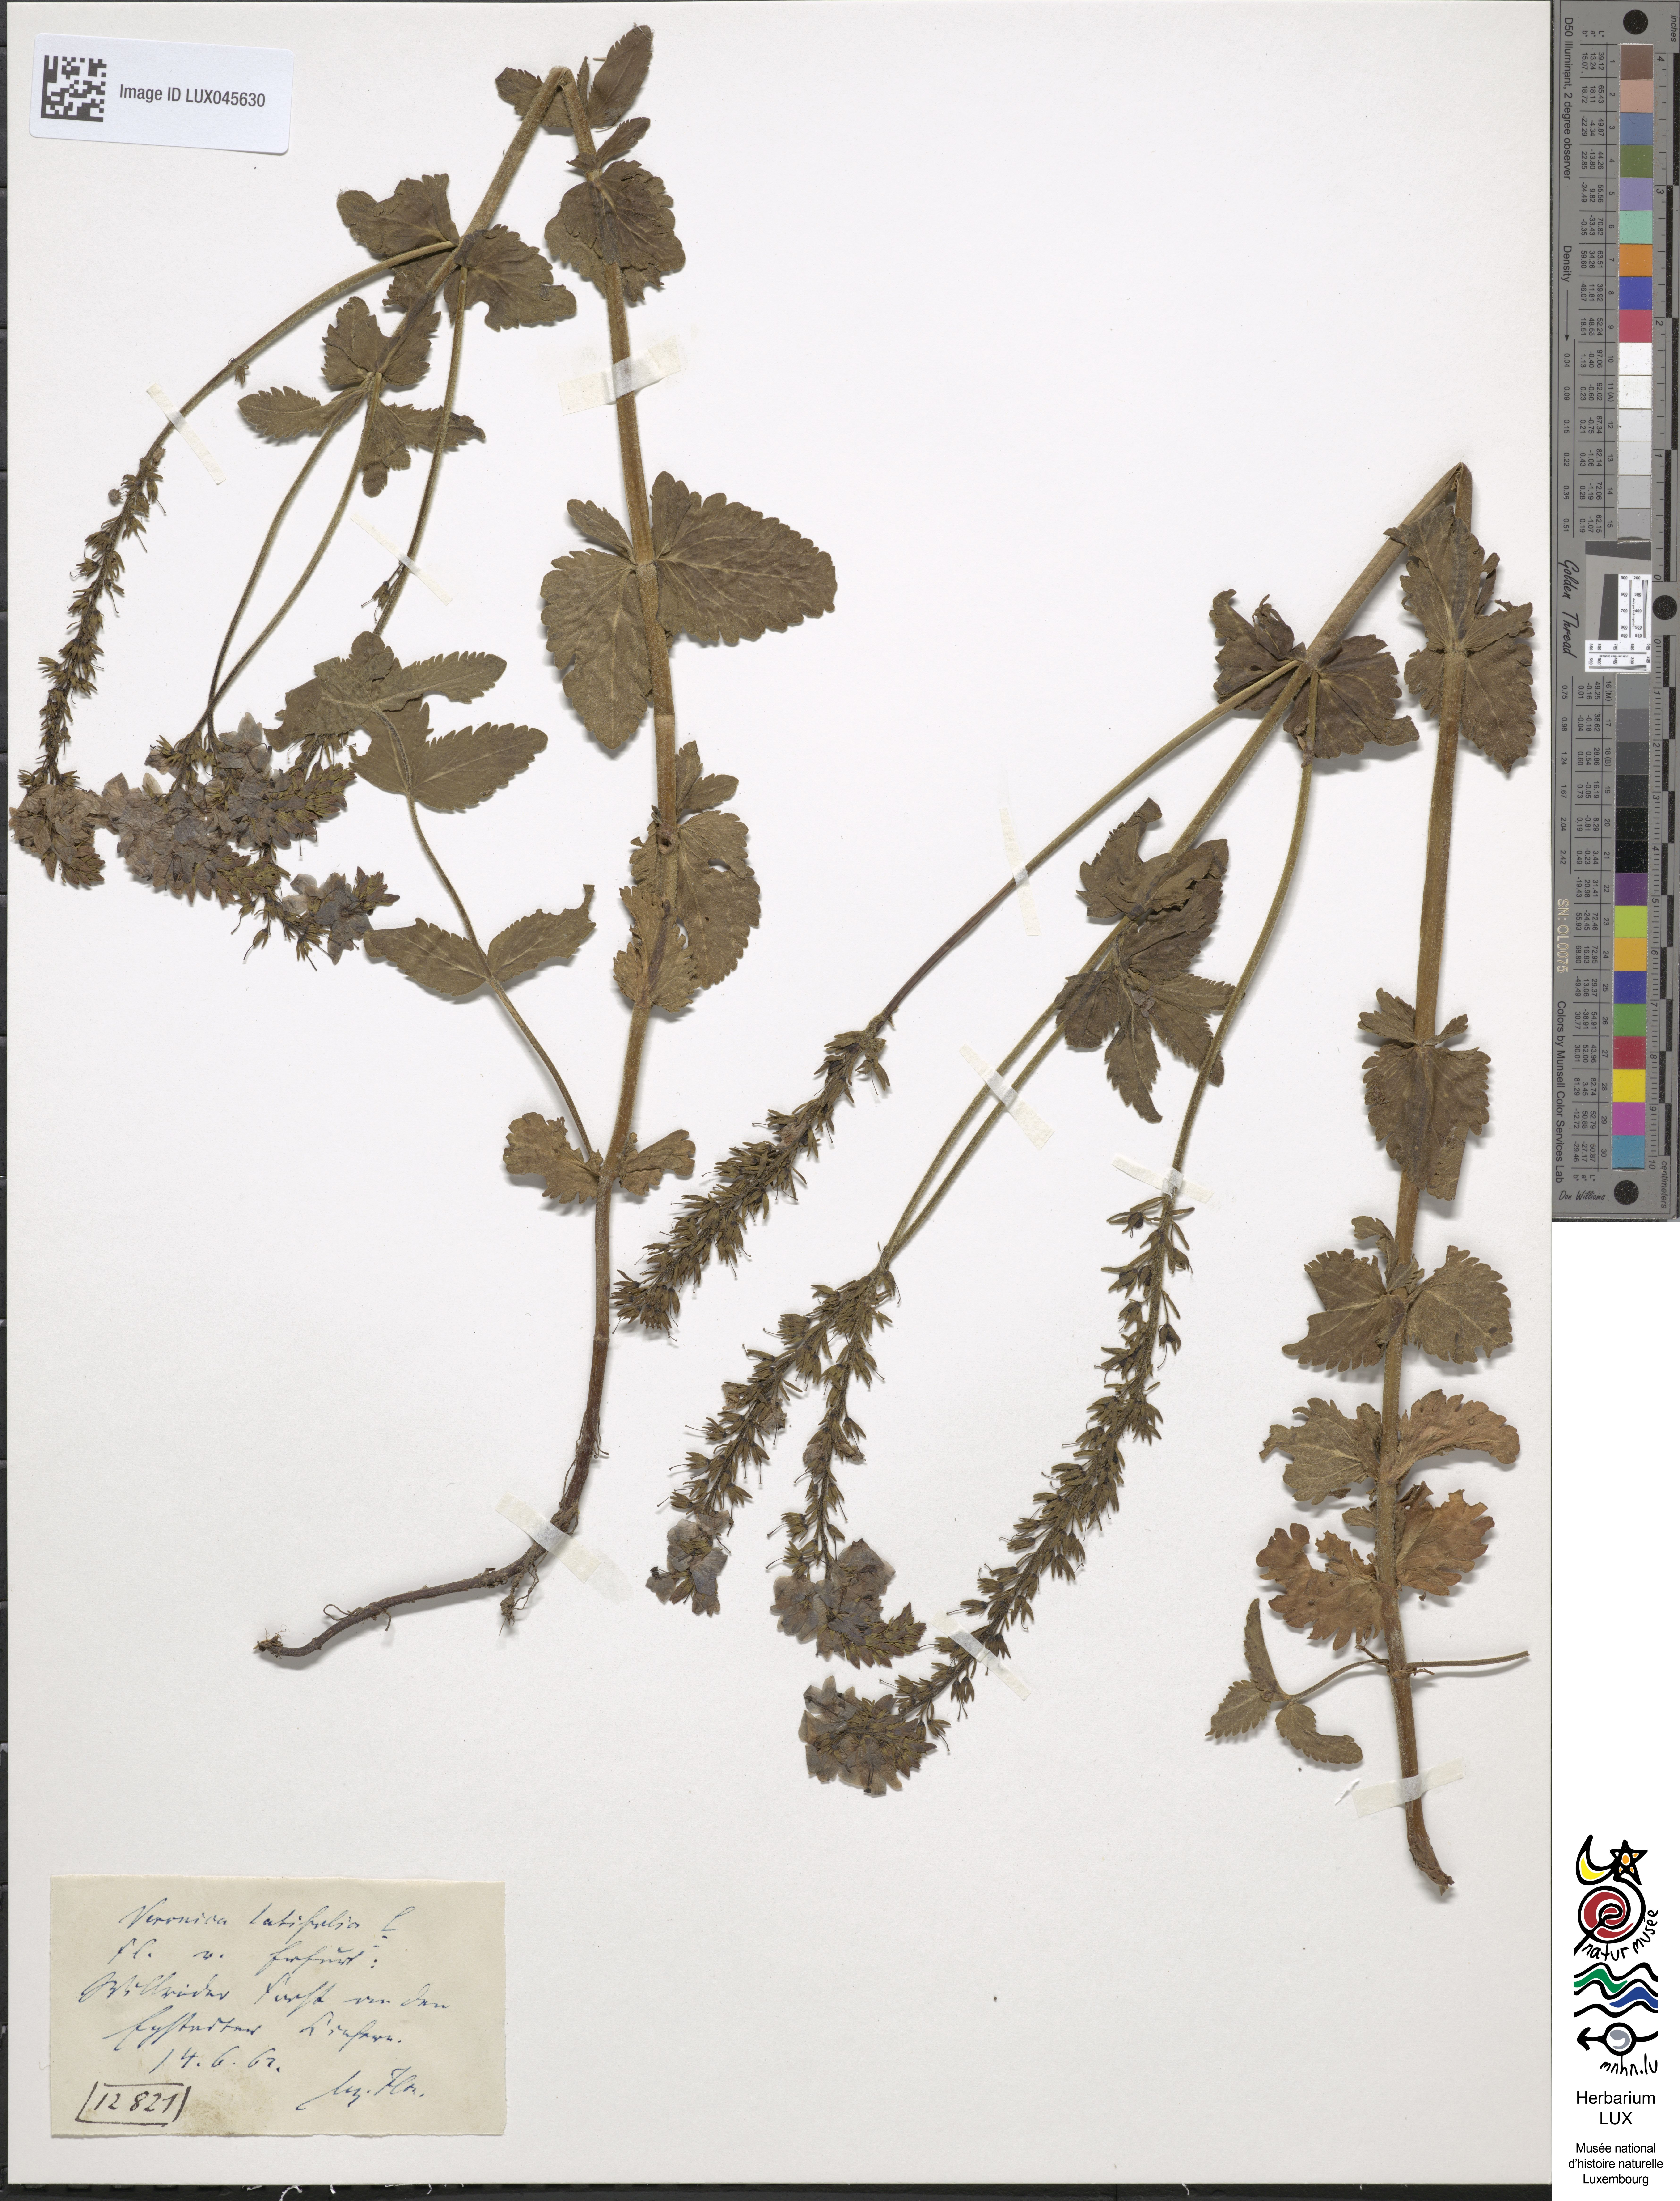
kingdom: Plantae
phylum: Tracheophyta
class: Magnoliopsida
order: Lamiales
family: Plantaginaceae
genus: Veronica
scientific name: Veronica urticifolia
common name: Nettle-leaf speedwell
